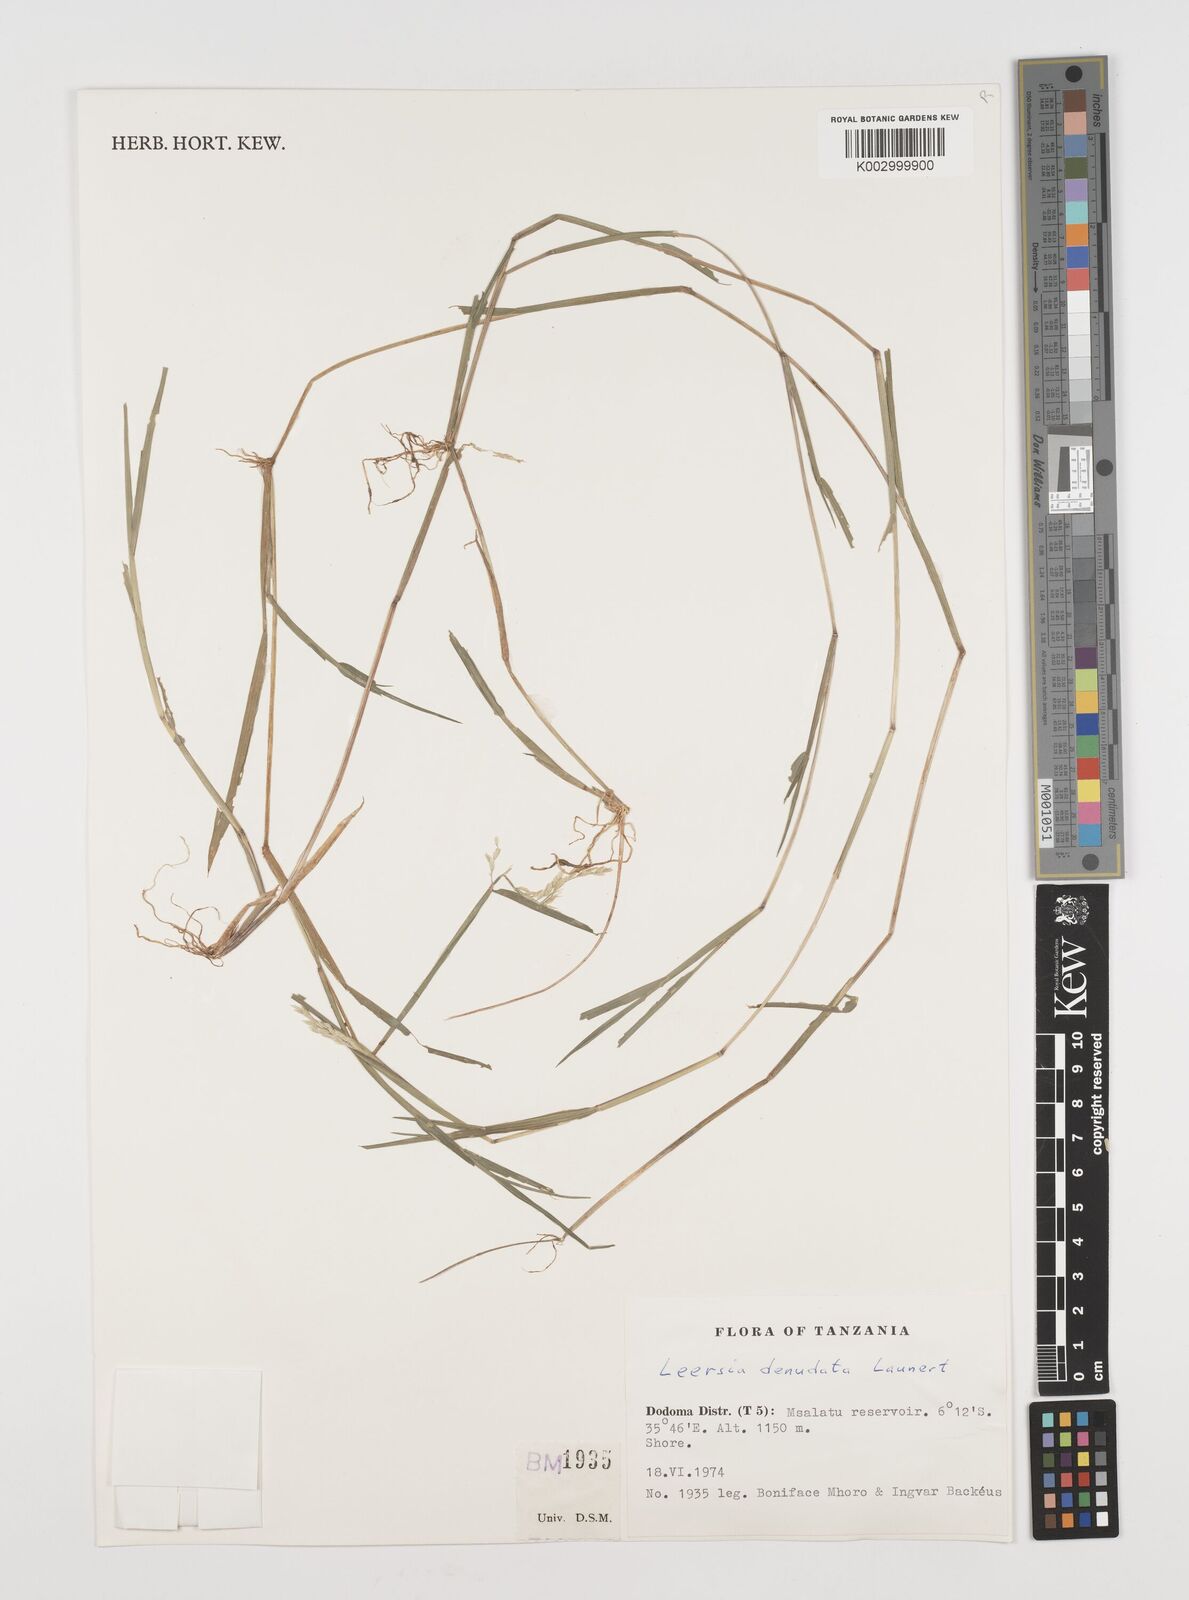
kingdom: Plantae
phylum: Tracheophyta
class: Liliopsida
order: Poales
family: Poaceae
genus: Leersia
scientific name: Leersia denudata
